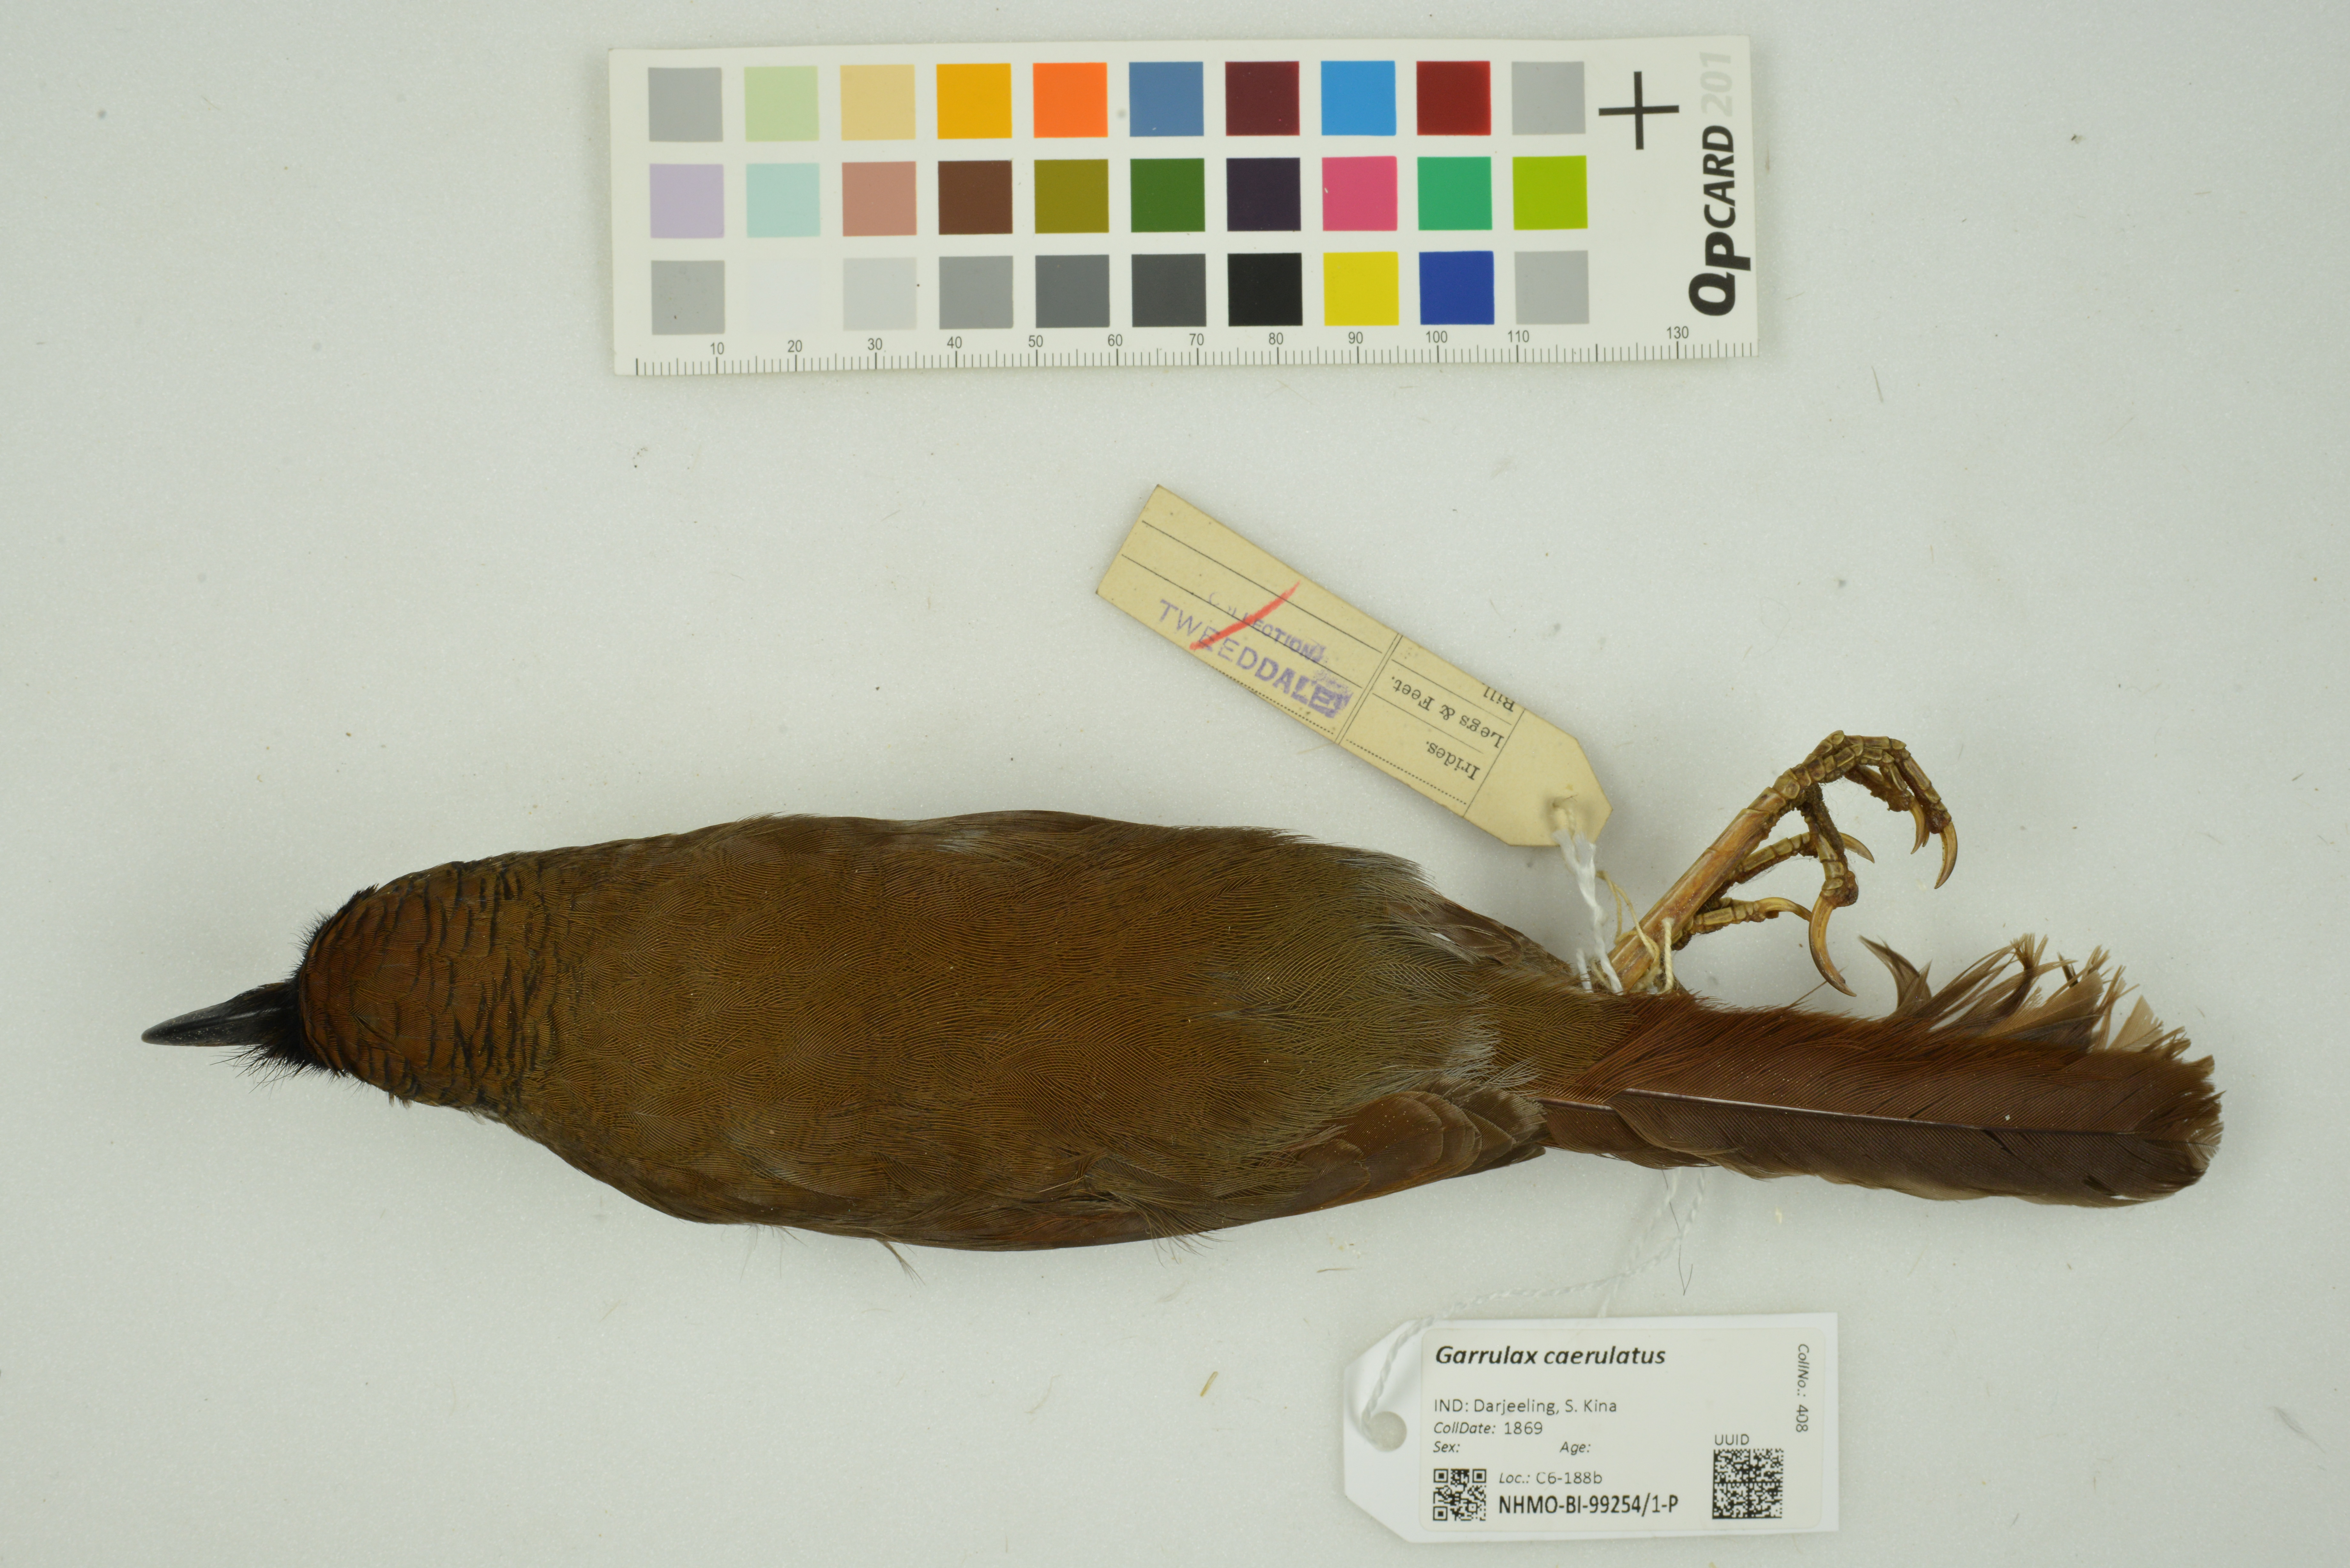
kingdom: Animalia
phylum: Chordata
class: Aves
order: Passeriformes
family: Leiothrichidae
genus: Garrulax
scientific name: Garrulax caerulatus
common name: Grey-sided laughingthrush
